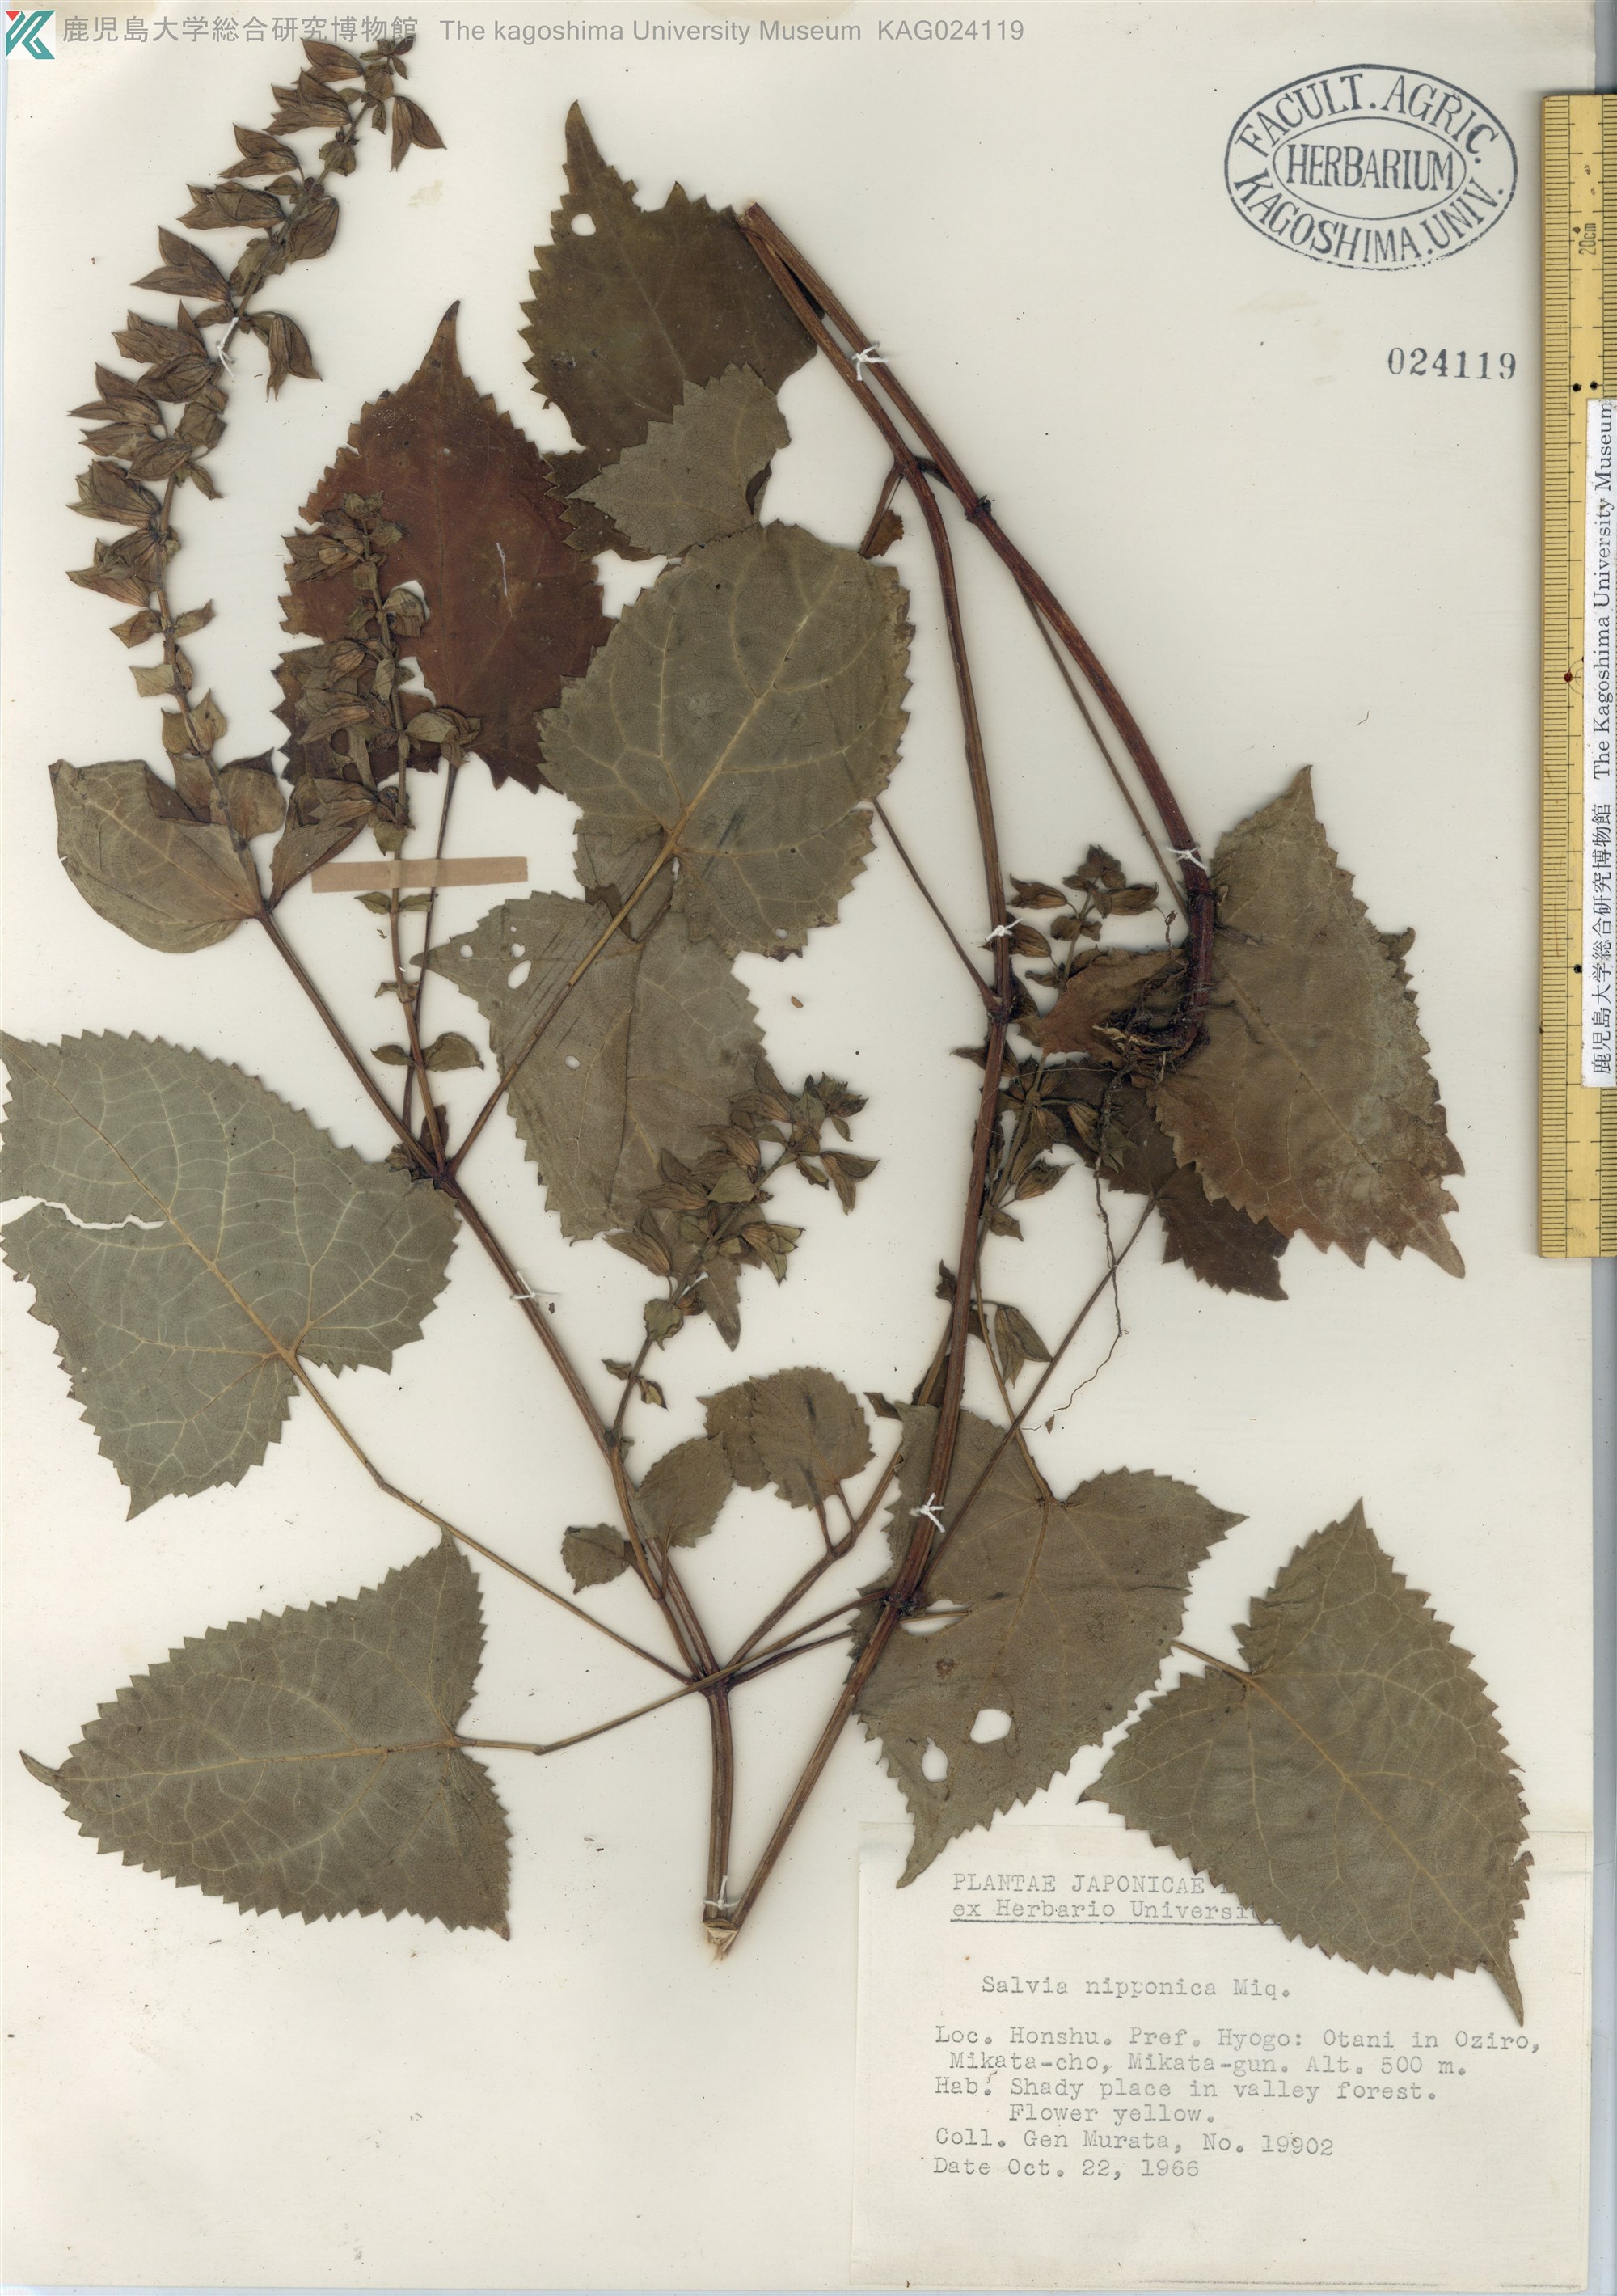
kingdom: Plantae
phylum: Tracheophyta
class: Magnoliopsida
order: Lamiales
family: Lamiaceae
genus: Salvia
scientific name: Salvia nipponica
